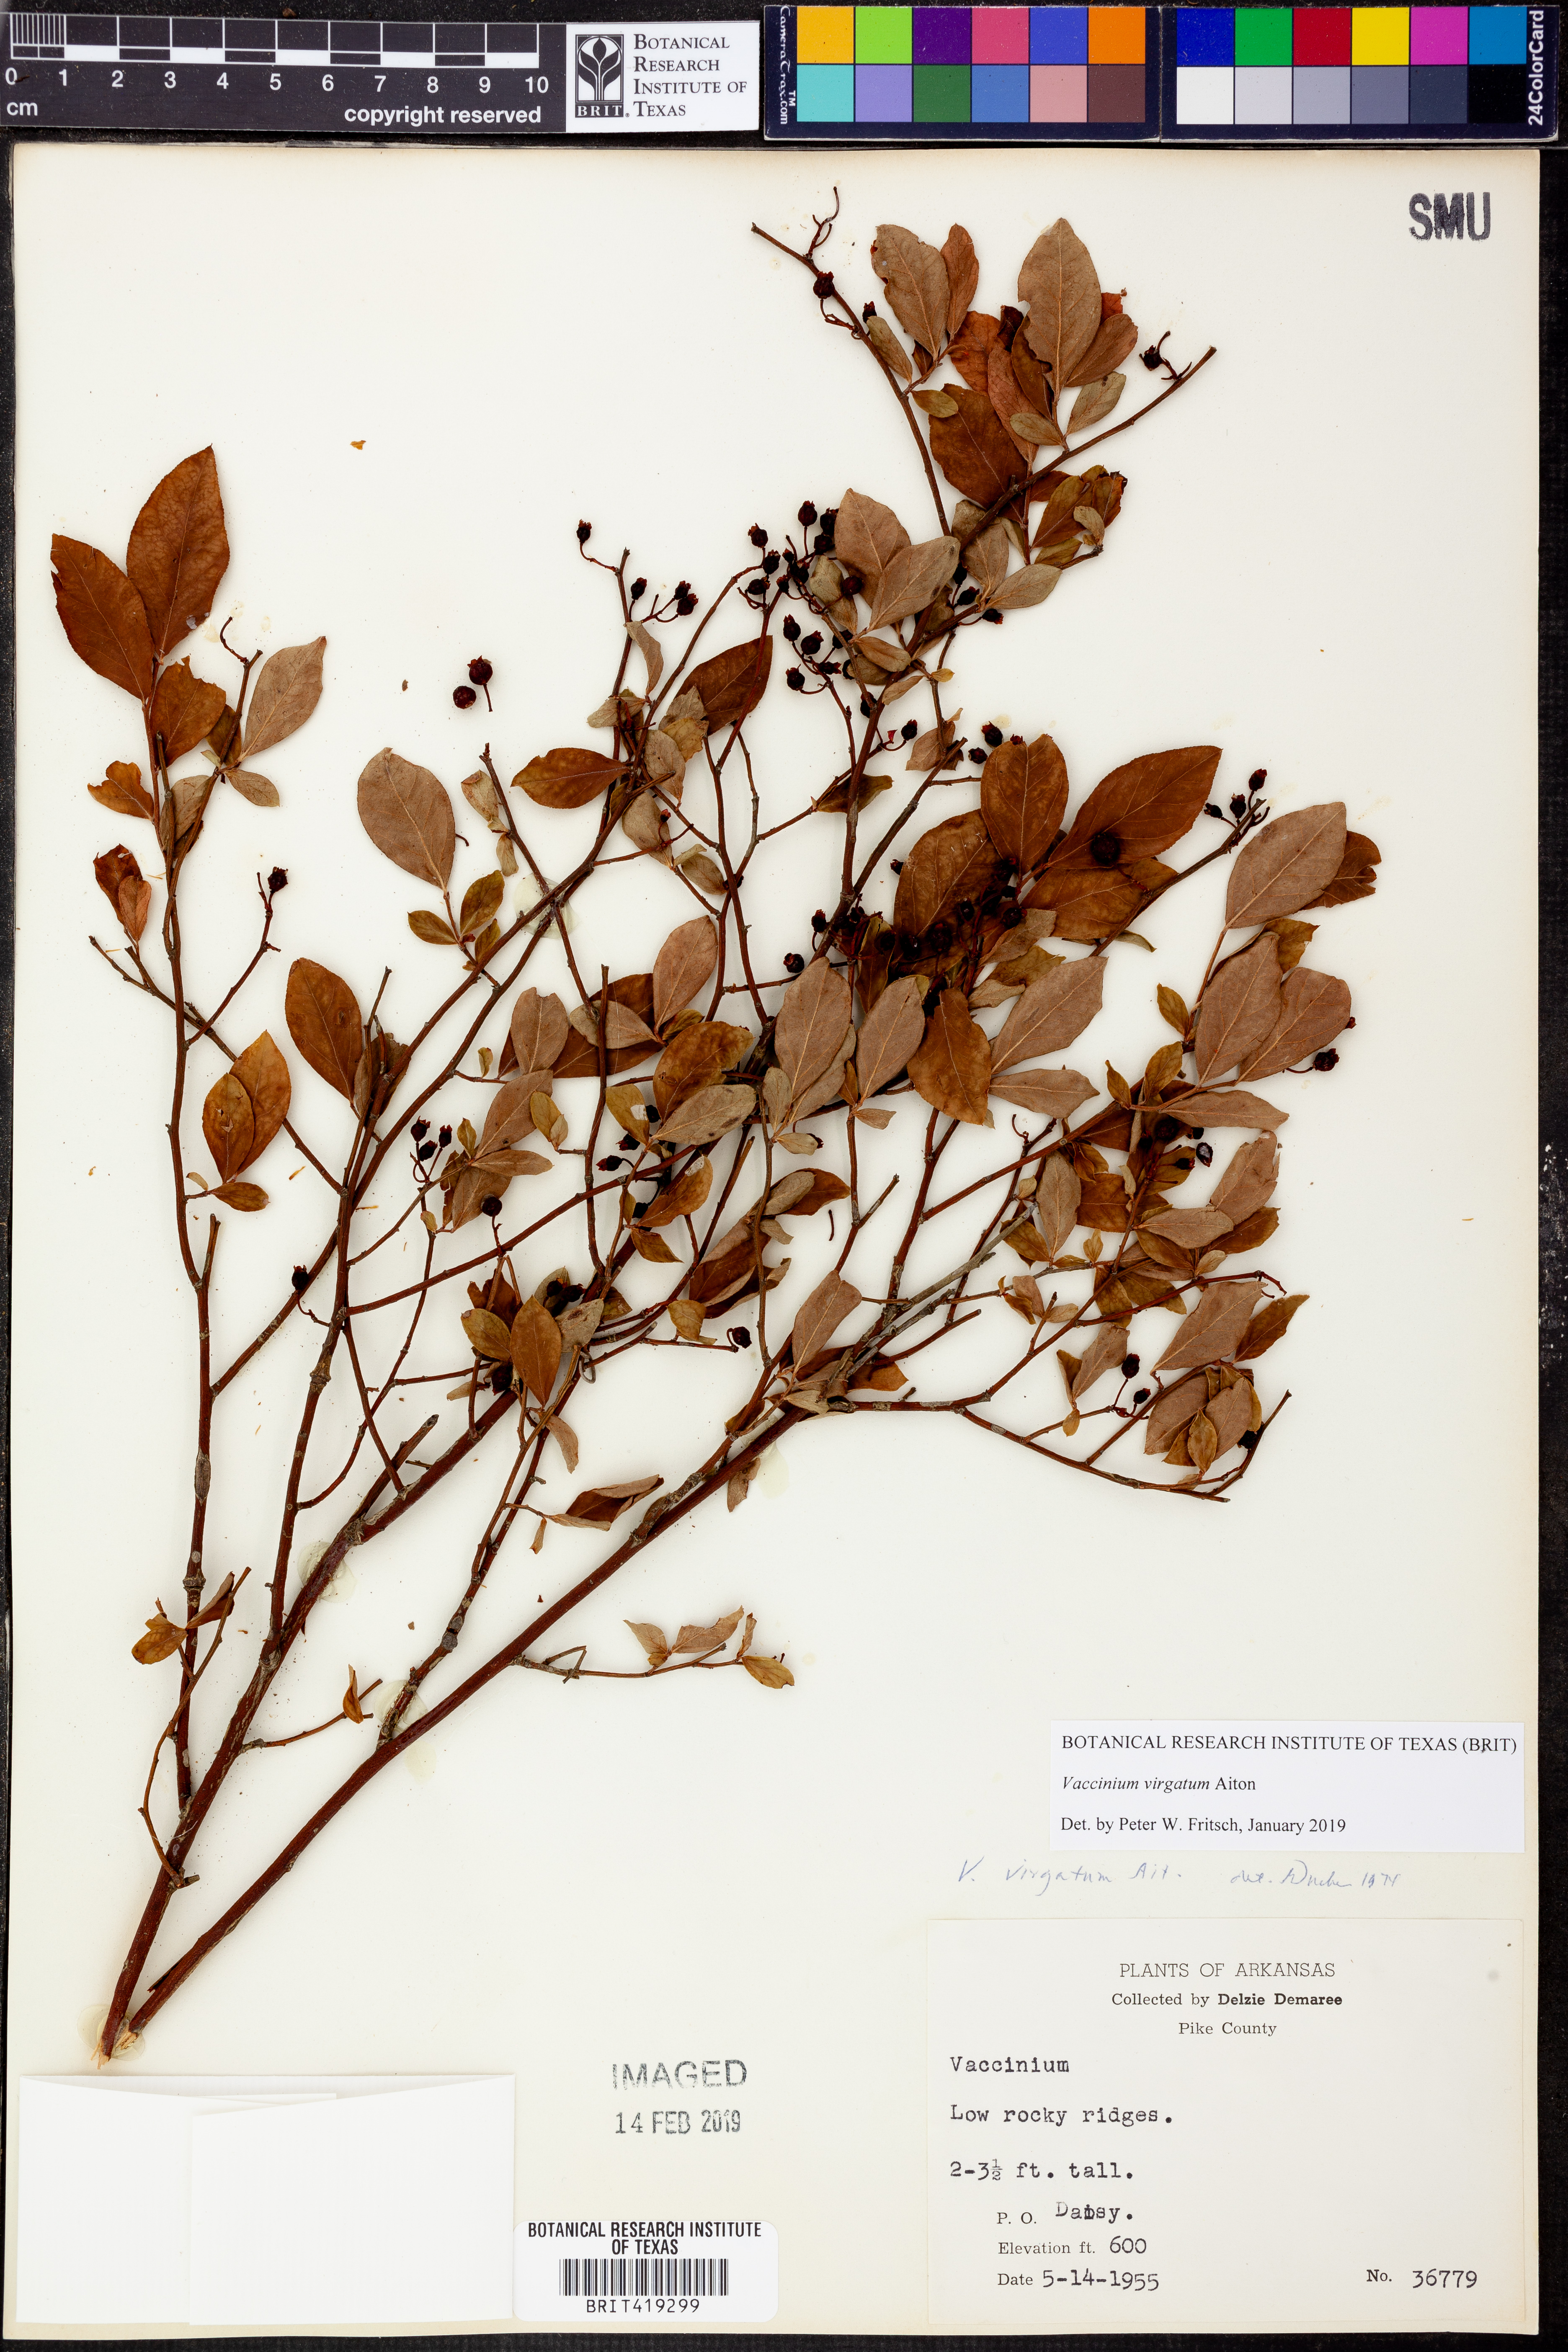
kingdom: Plantae
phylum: Tracheophyta
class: Magnoliopsida
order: Ericales
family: Ericaceae
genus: Vaccinium
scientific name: Vaccinium corymbosum
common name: Blueberry
